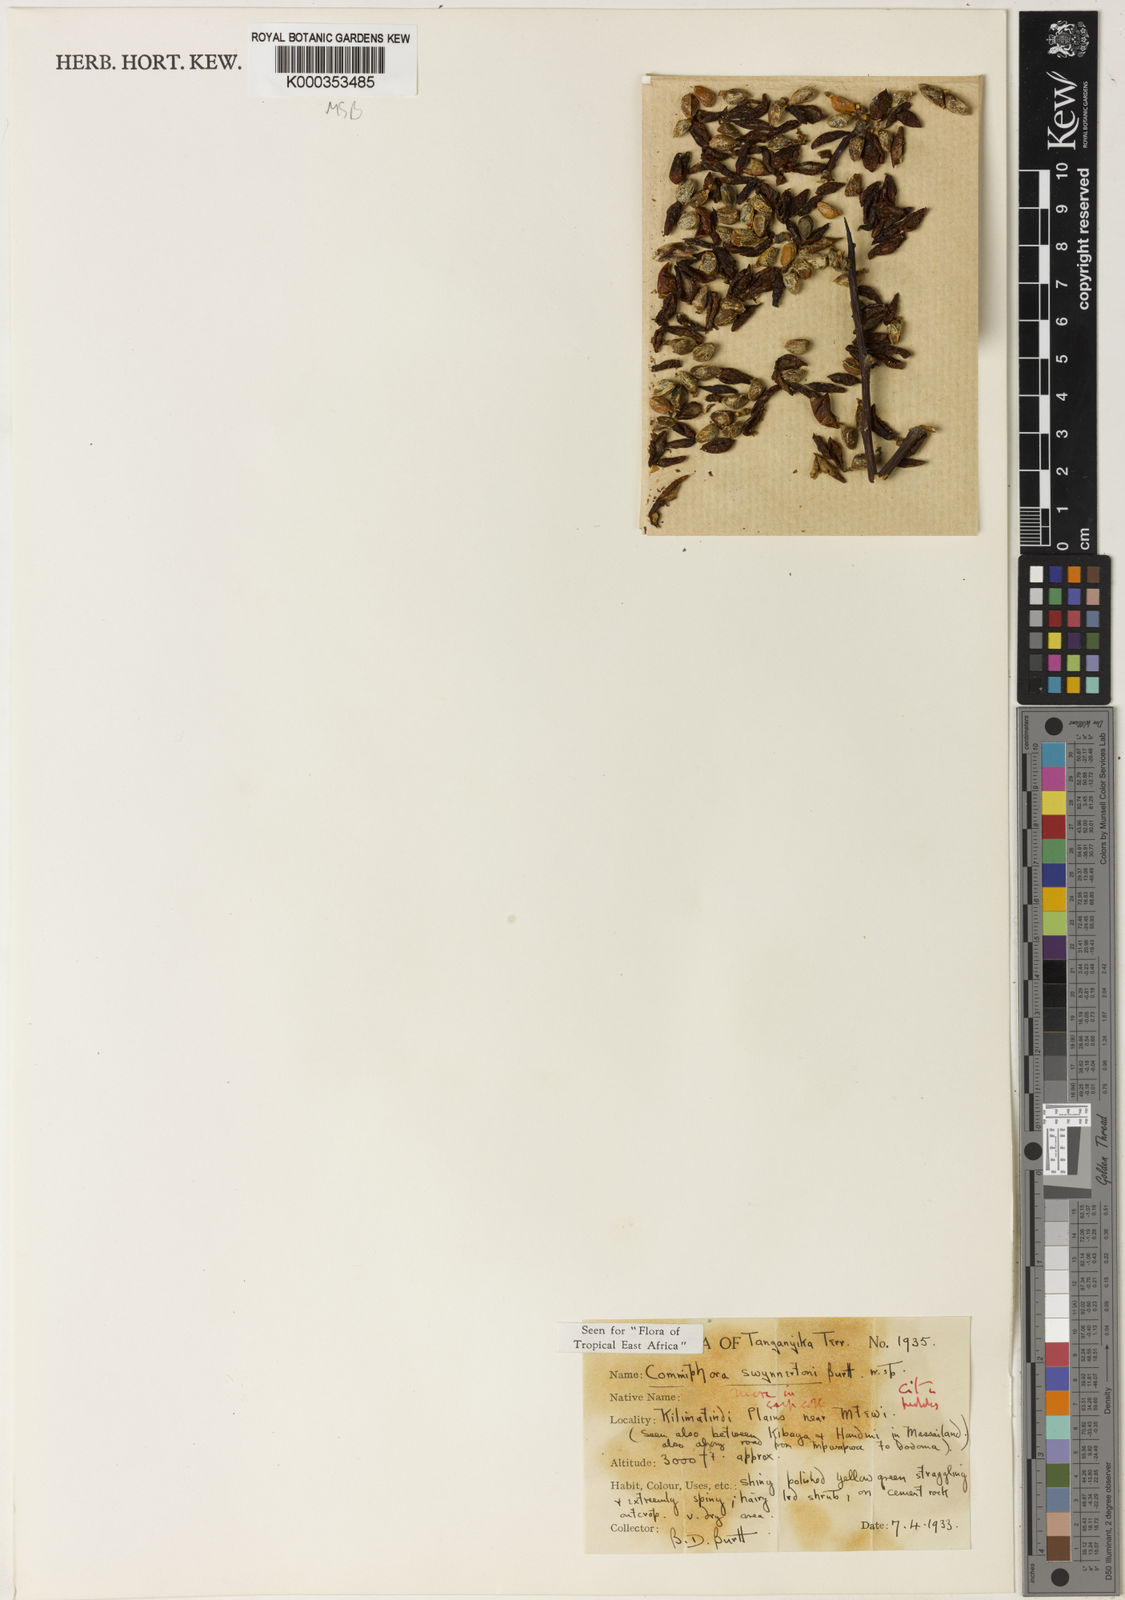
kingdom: Plantae
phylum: Tracheophyta
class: Magnoliopsida
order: Sapindales
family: Burseraceae
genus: Commiphora
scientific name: Commiphora swynnertonii
